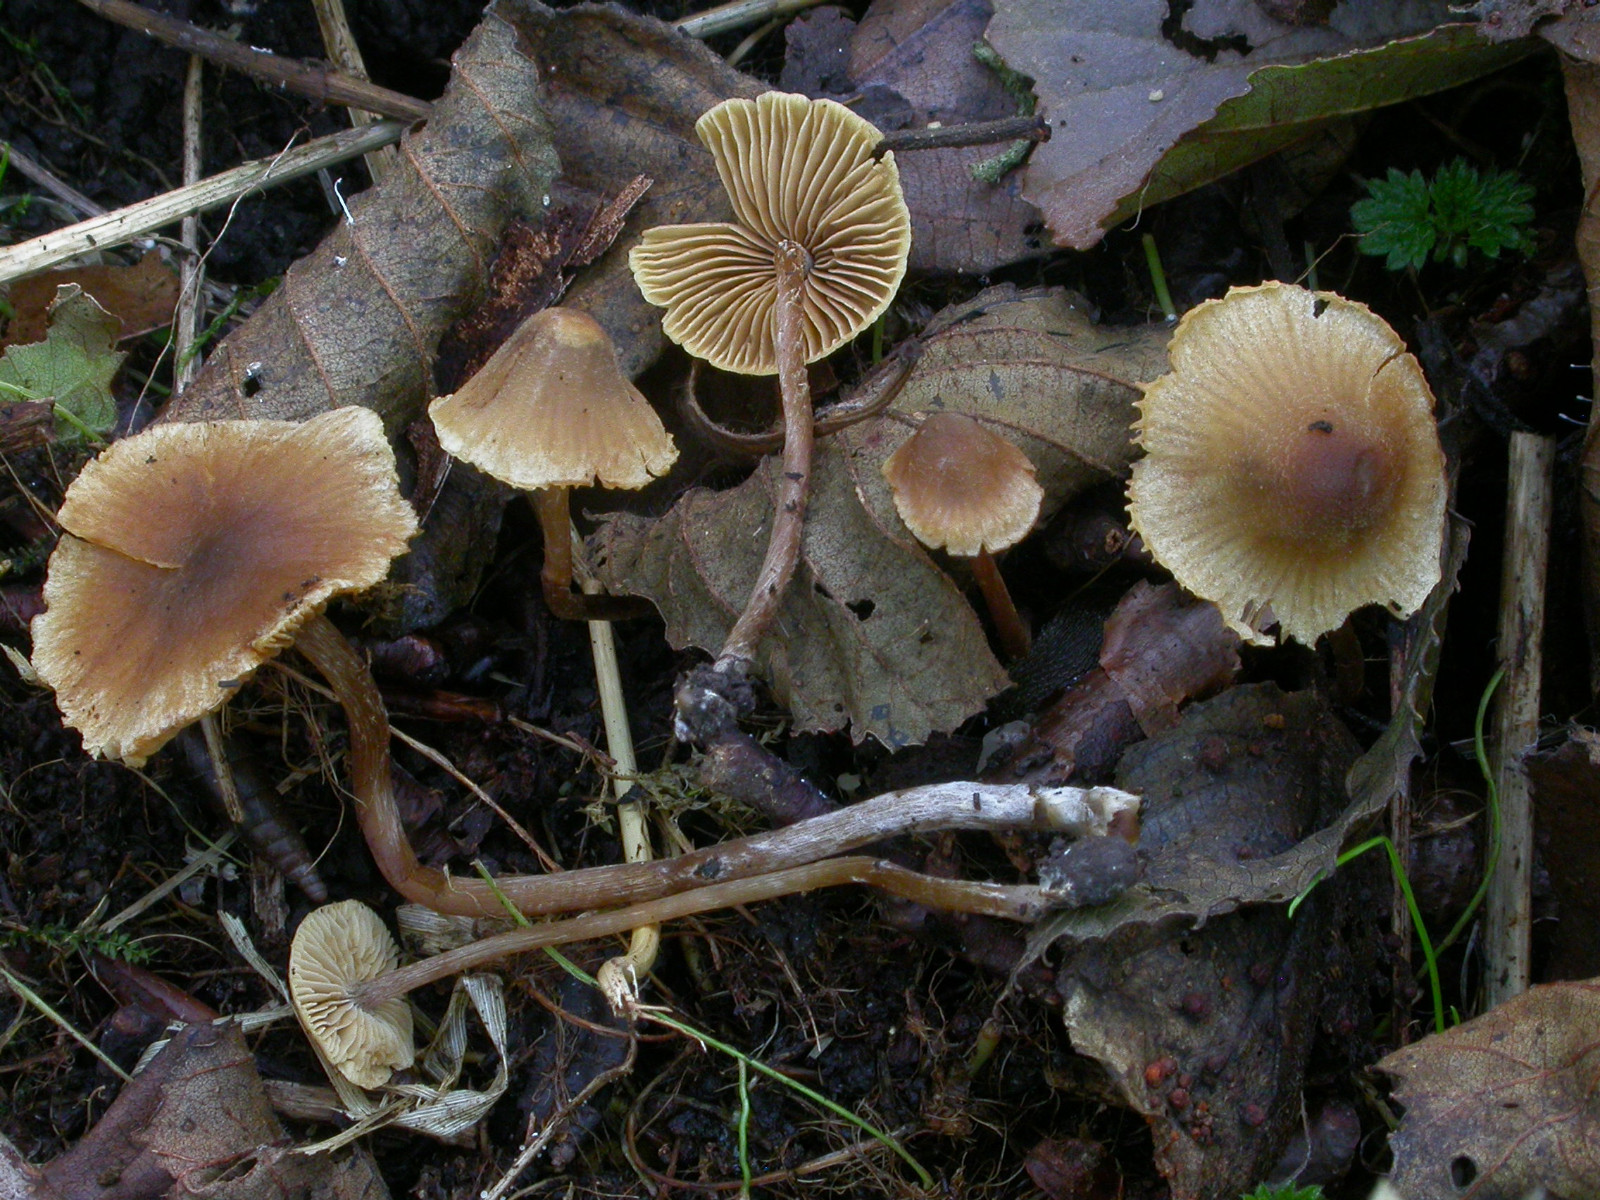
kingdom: Fungi
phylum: Basidiomycota
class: Agaricomycetes
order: Agaricales
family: Hymenogastraceae
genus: Naucoria
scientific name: Naucoria subconspersa
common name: filtet knaphat
